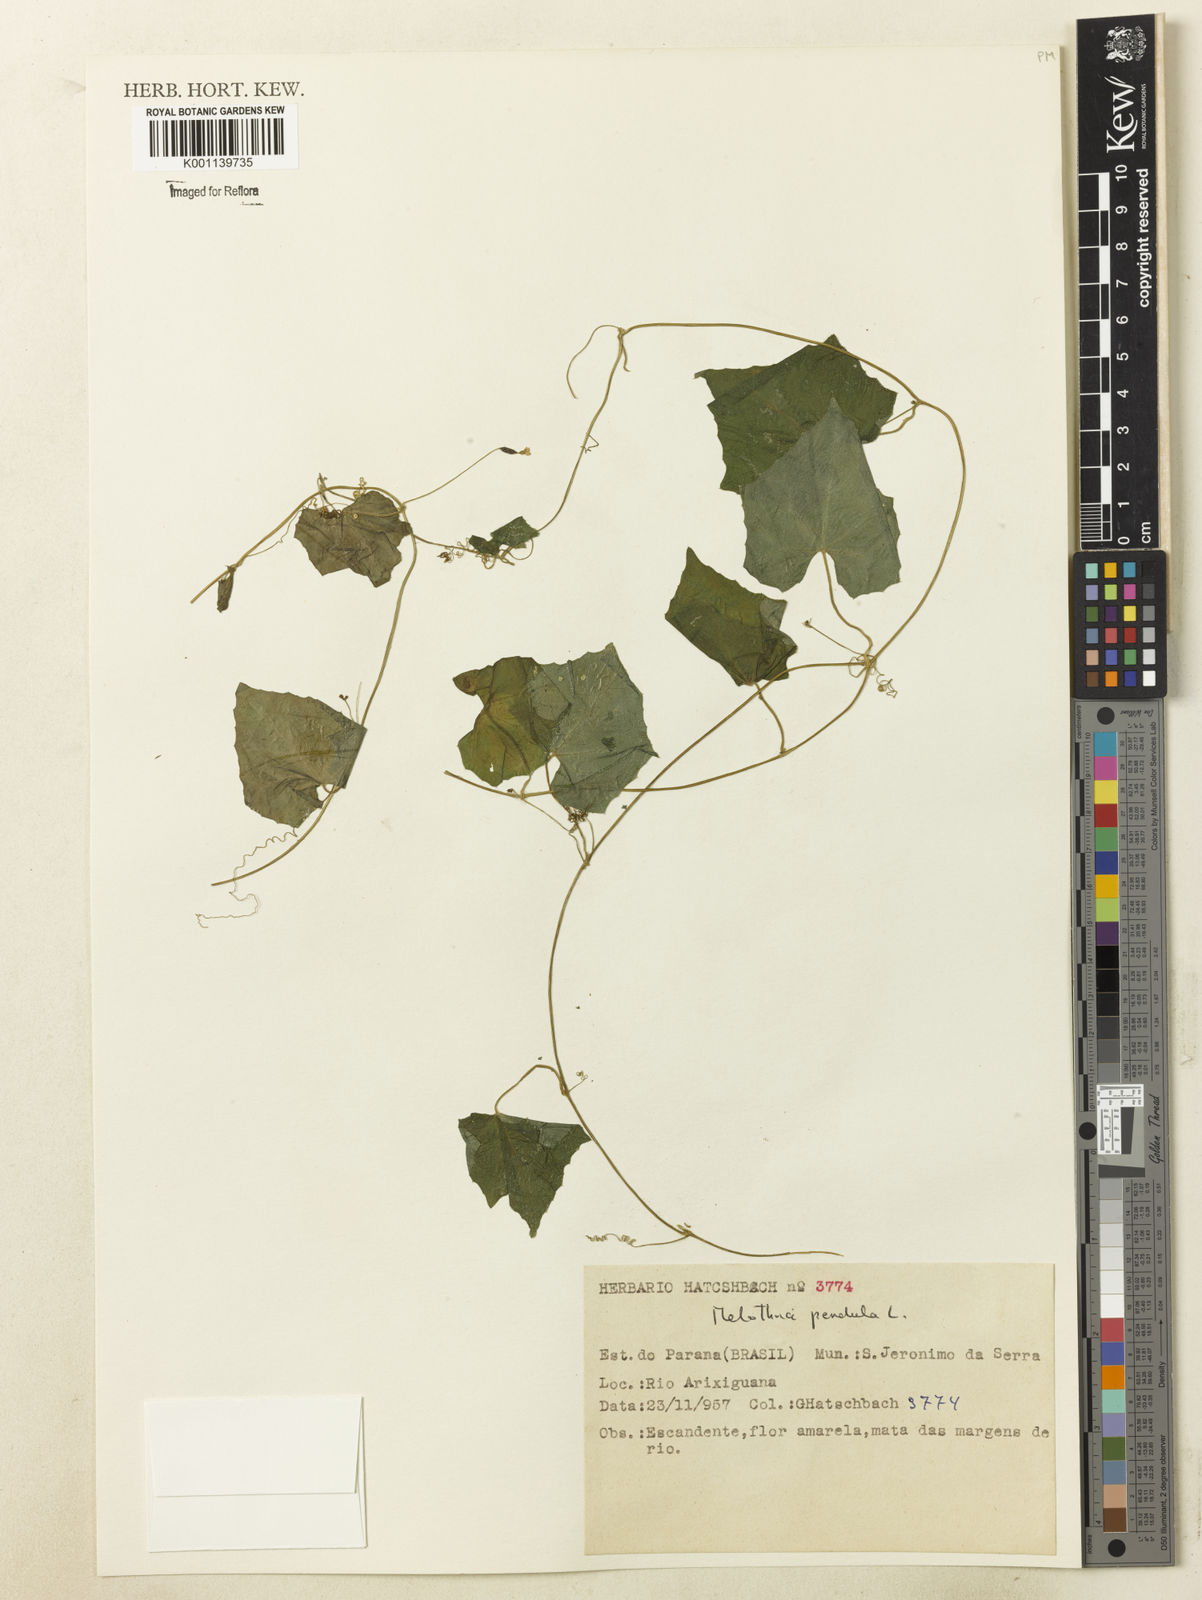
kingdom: Plantae
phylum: Tracheophyta
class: Magnoliopsida
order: Cucurbitales
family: Cucurbitaceae
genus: Melothria
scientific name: Melothria pendula
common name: Creeping-cucumber
